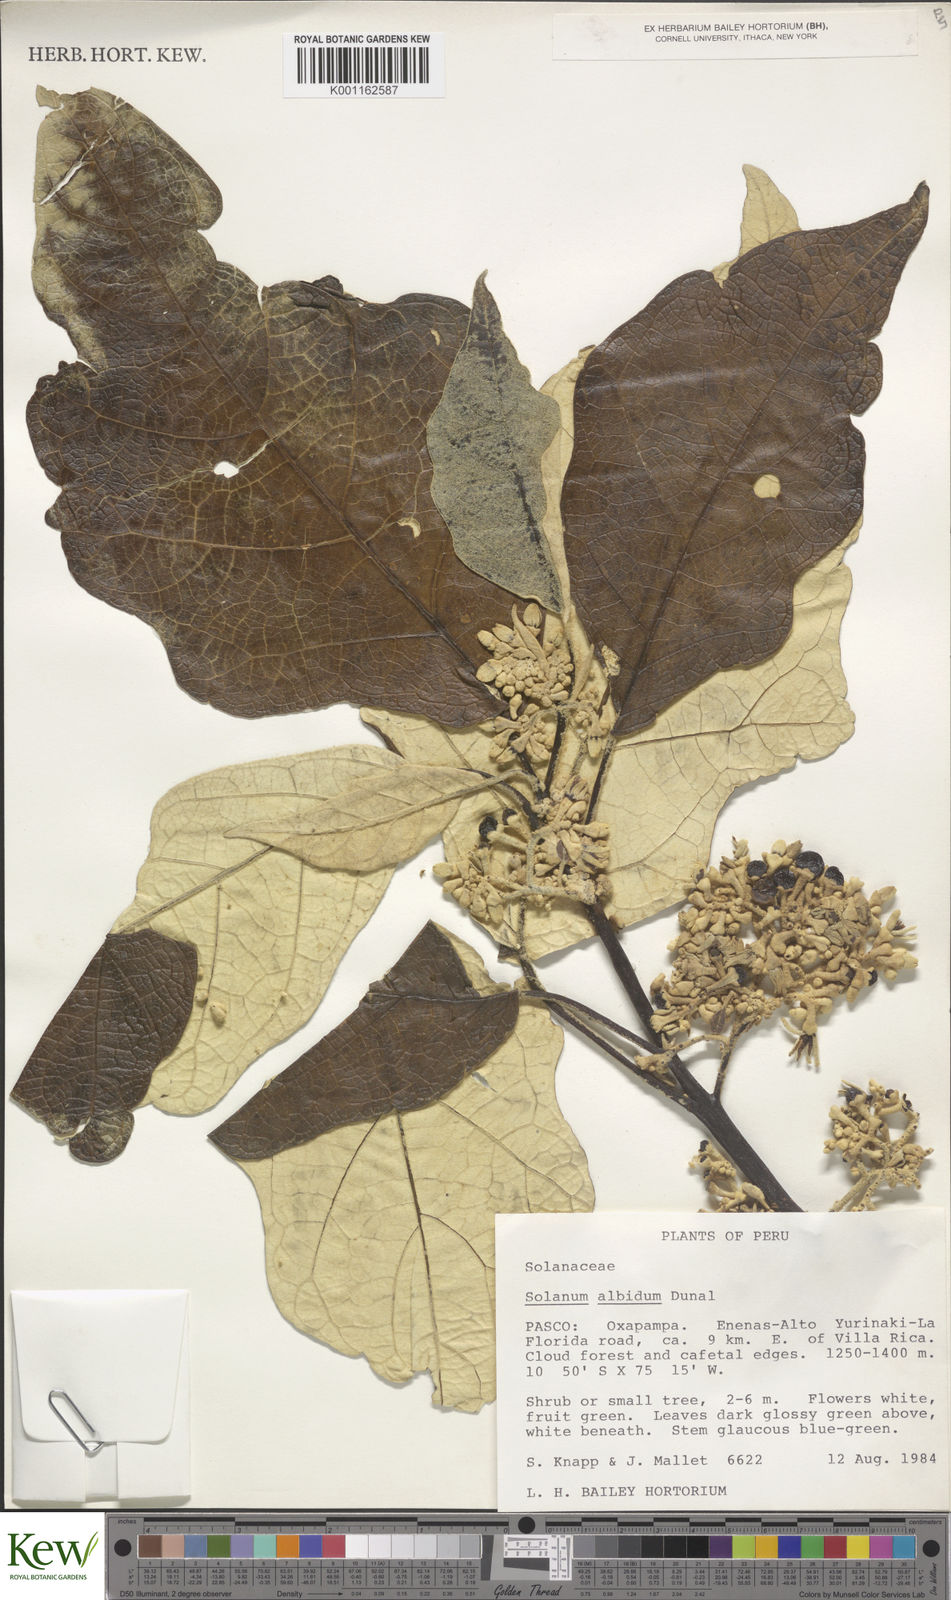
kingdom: Plantae
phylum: Tracheophyta
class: Magnoliopsida
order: Solanales
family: Solanaceae
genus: Solanum
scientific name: Solanum albidum
